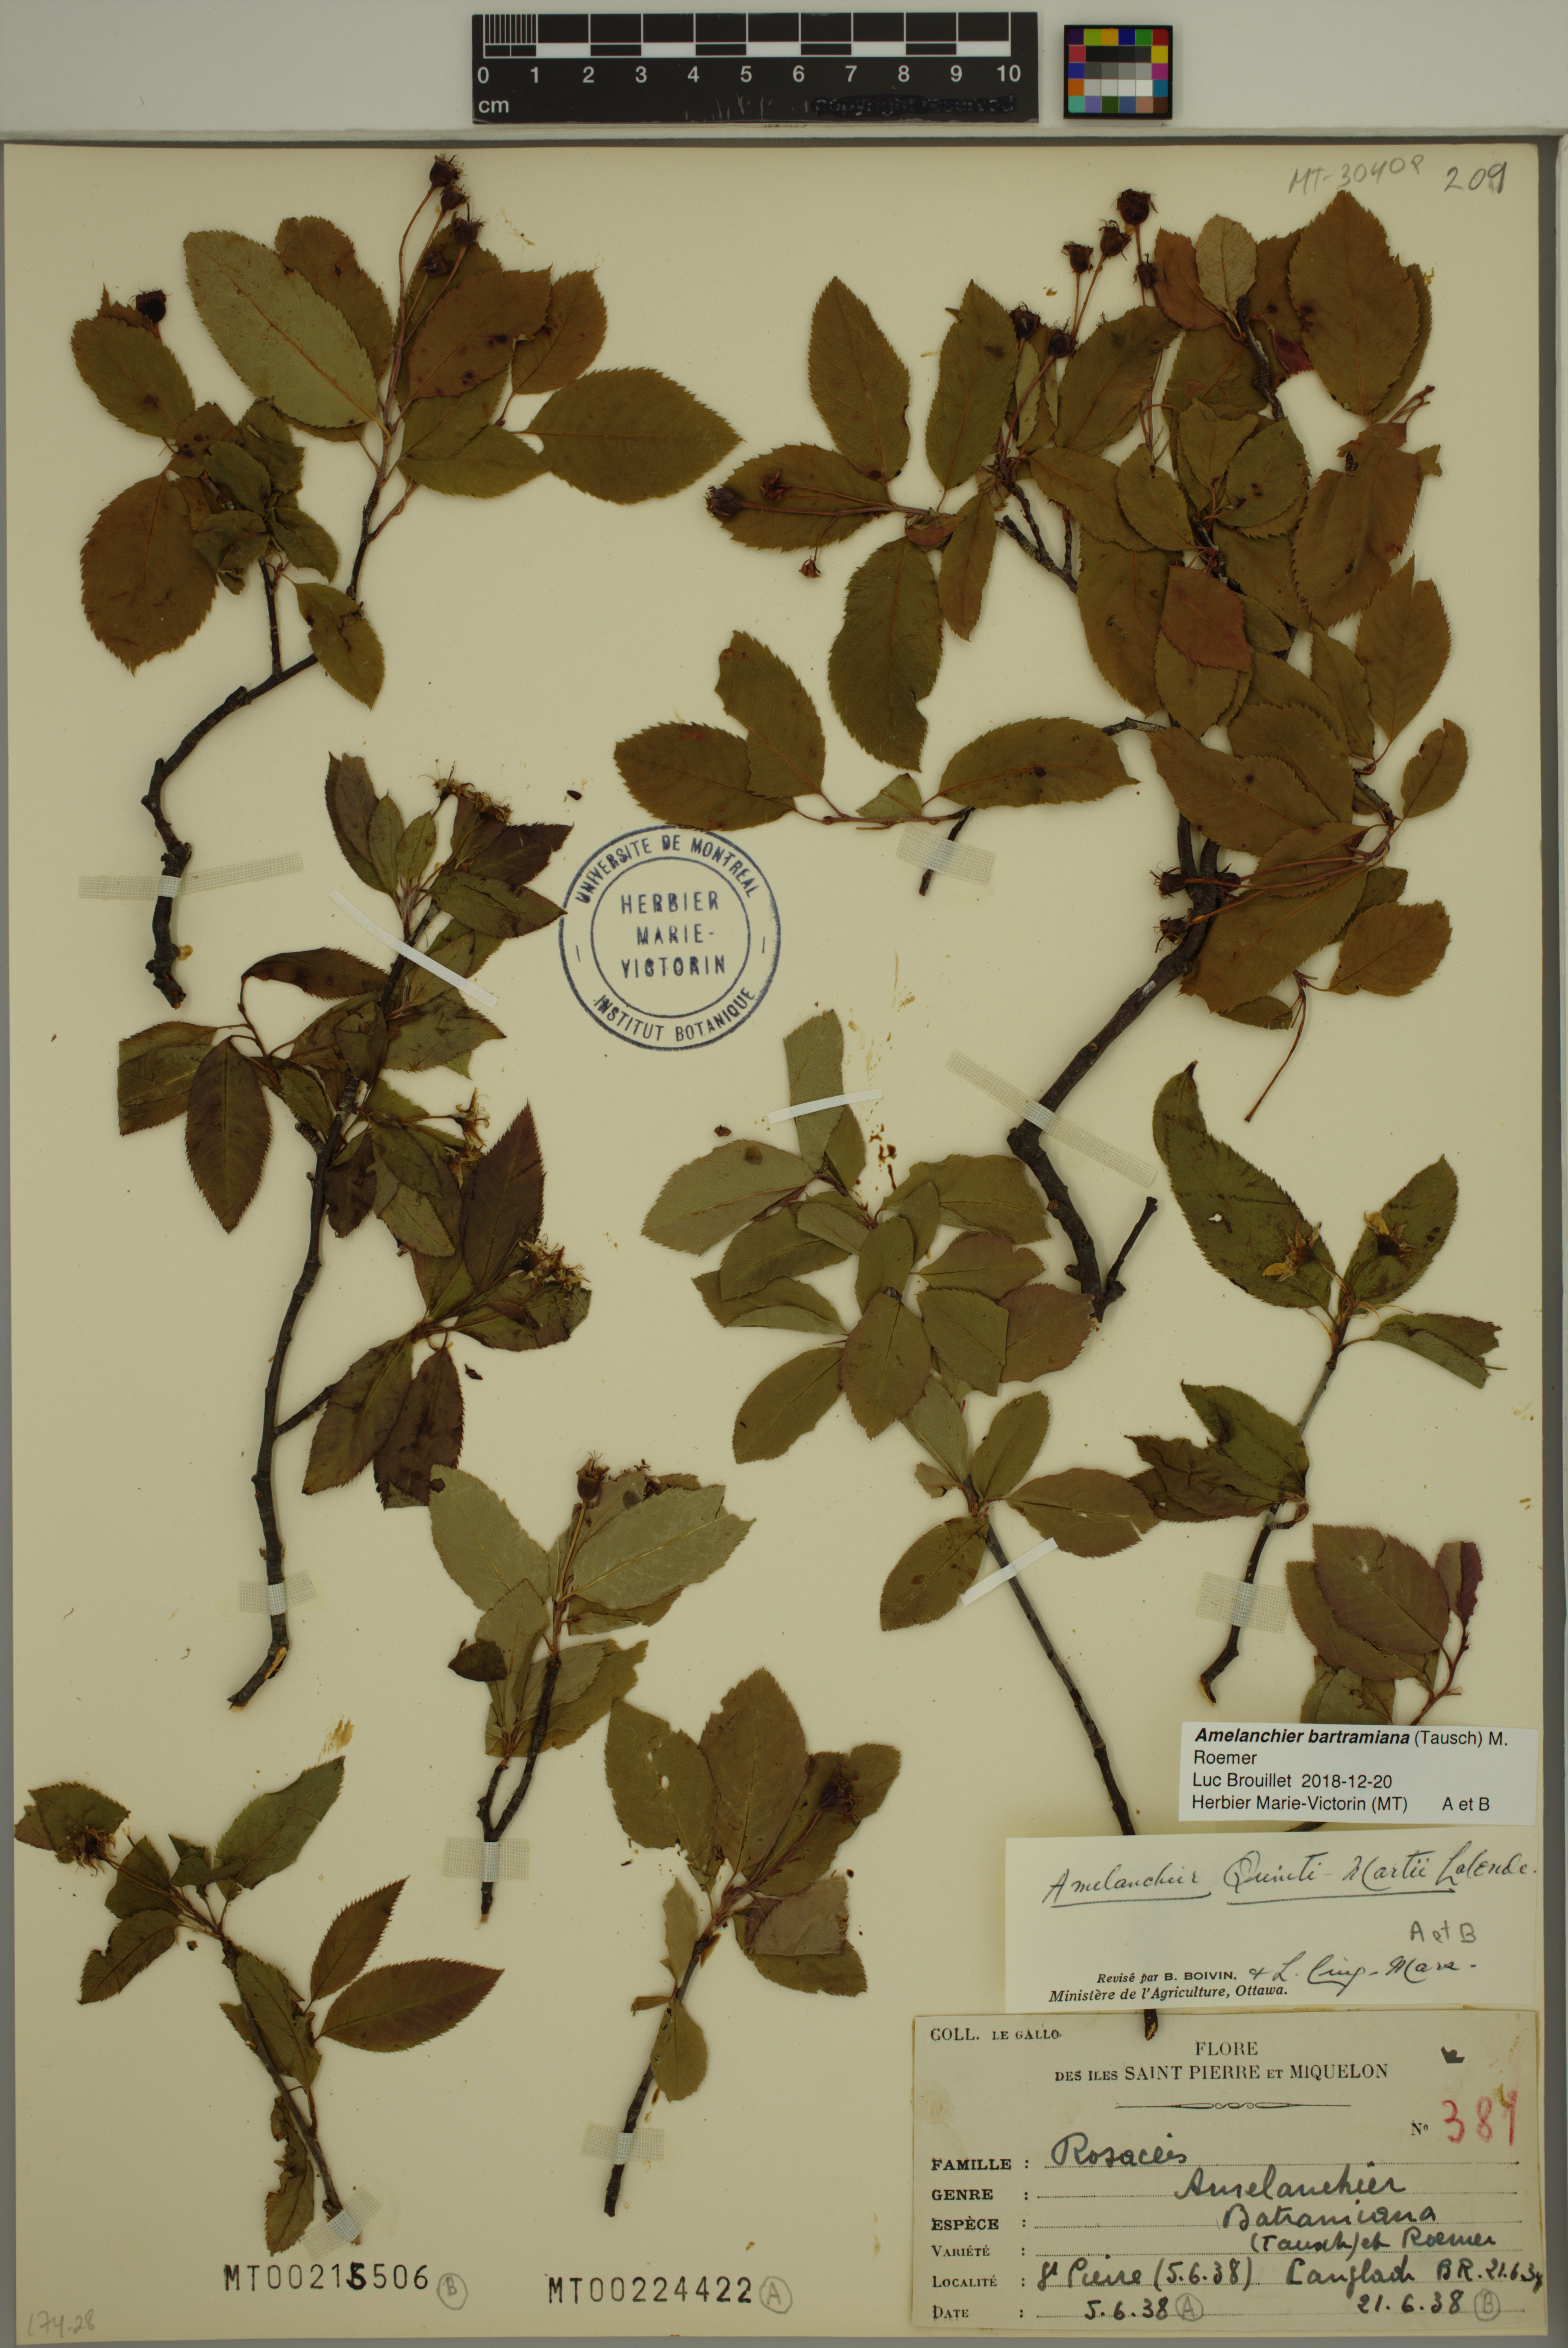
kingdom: Plantae
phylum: Tracheophyta
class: Magnoliopsida
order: Rosales
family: Rosaceae
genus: Amelanchier
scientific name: Amelanchier bartramiana
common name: Mountain serviceberry
